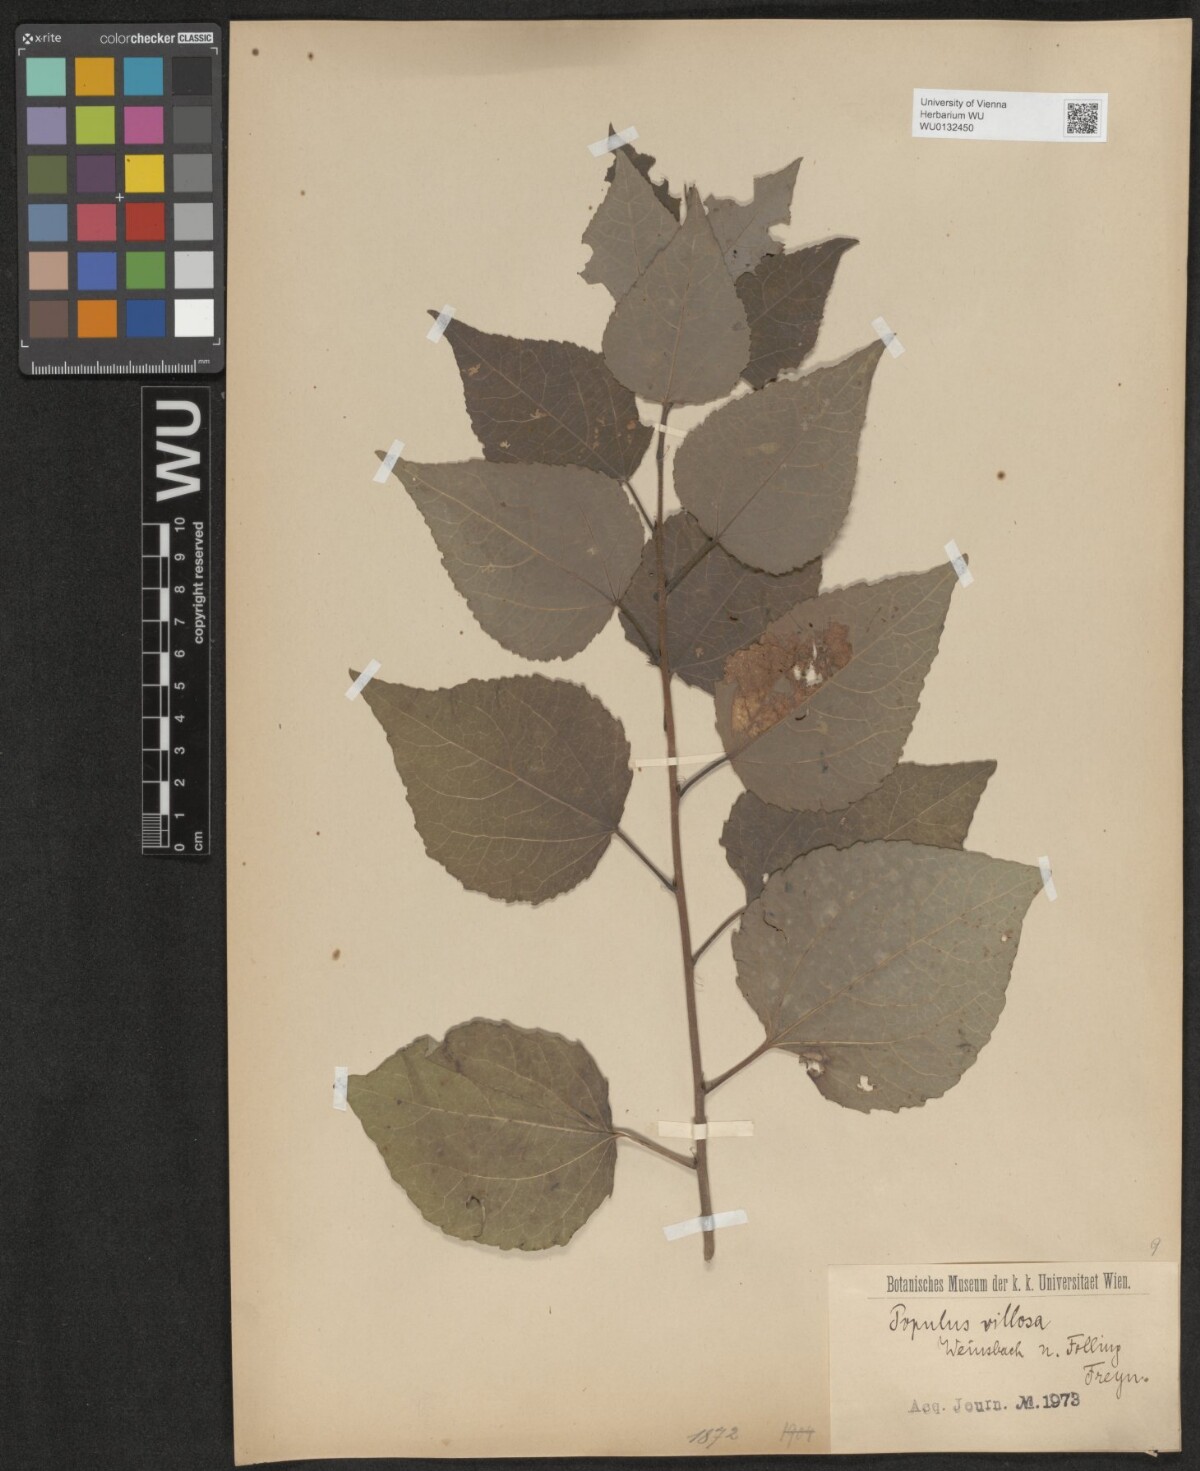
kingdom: Plantae
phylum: Tracheophyta
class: Magnoliopsida
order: Malpighiales
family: Salicaceae
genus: Populus
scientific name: Populus tremula
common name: European aspen
